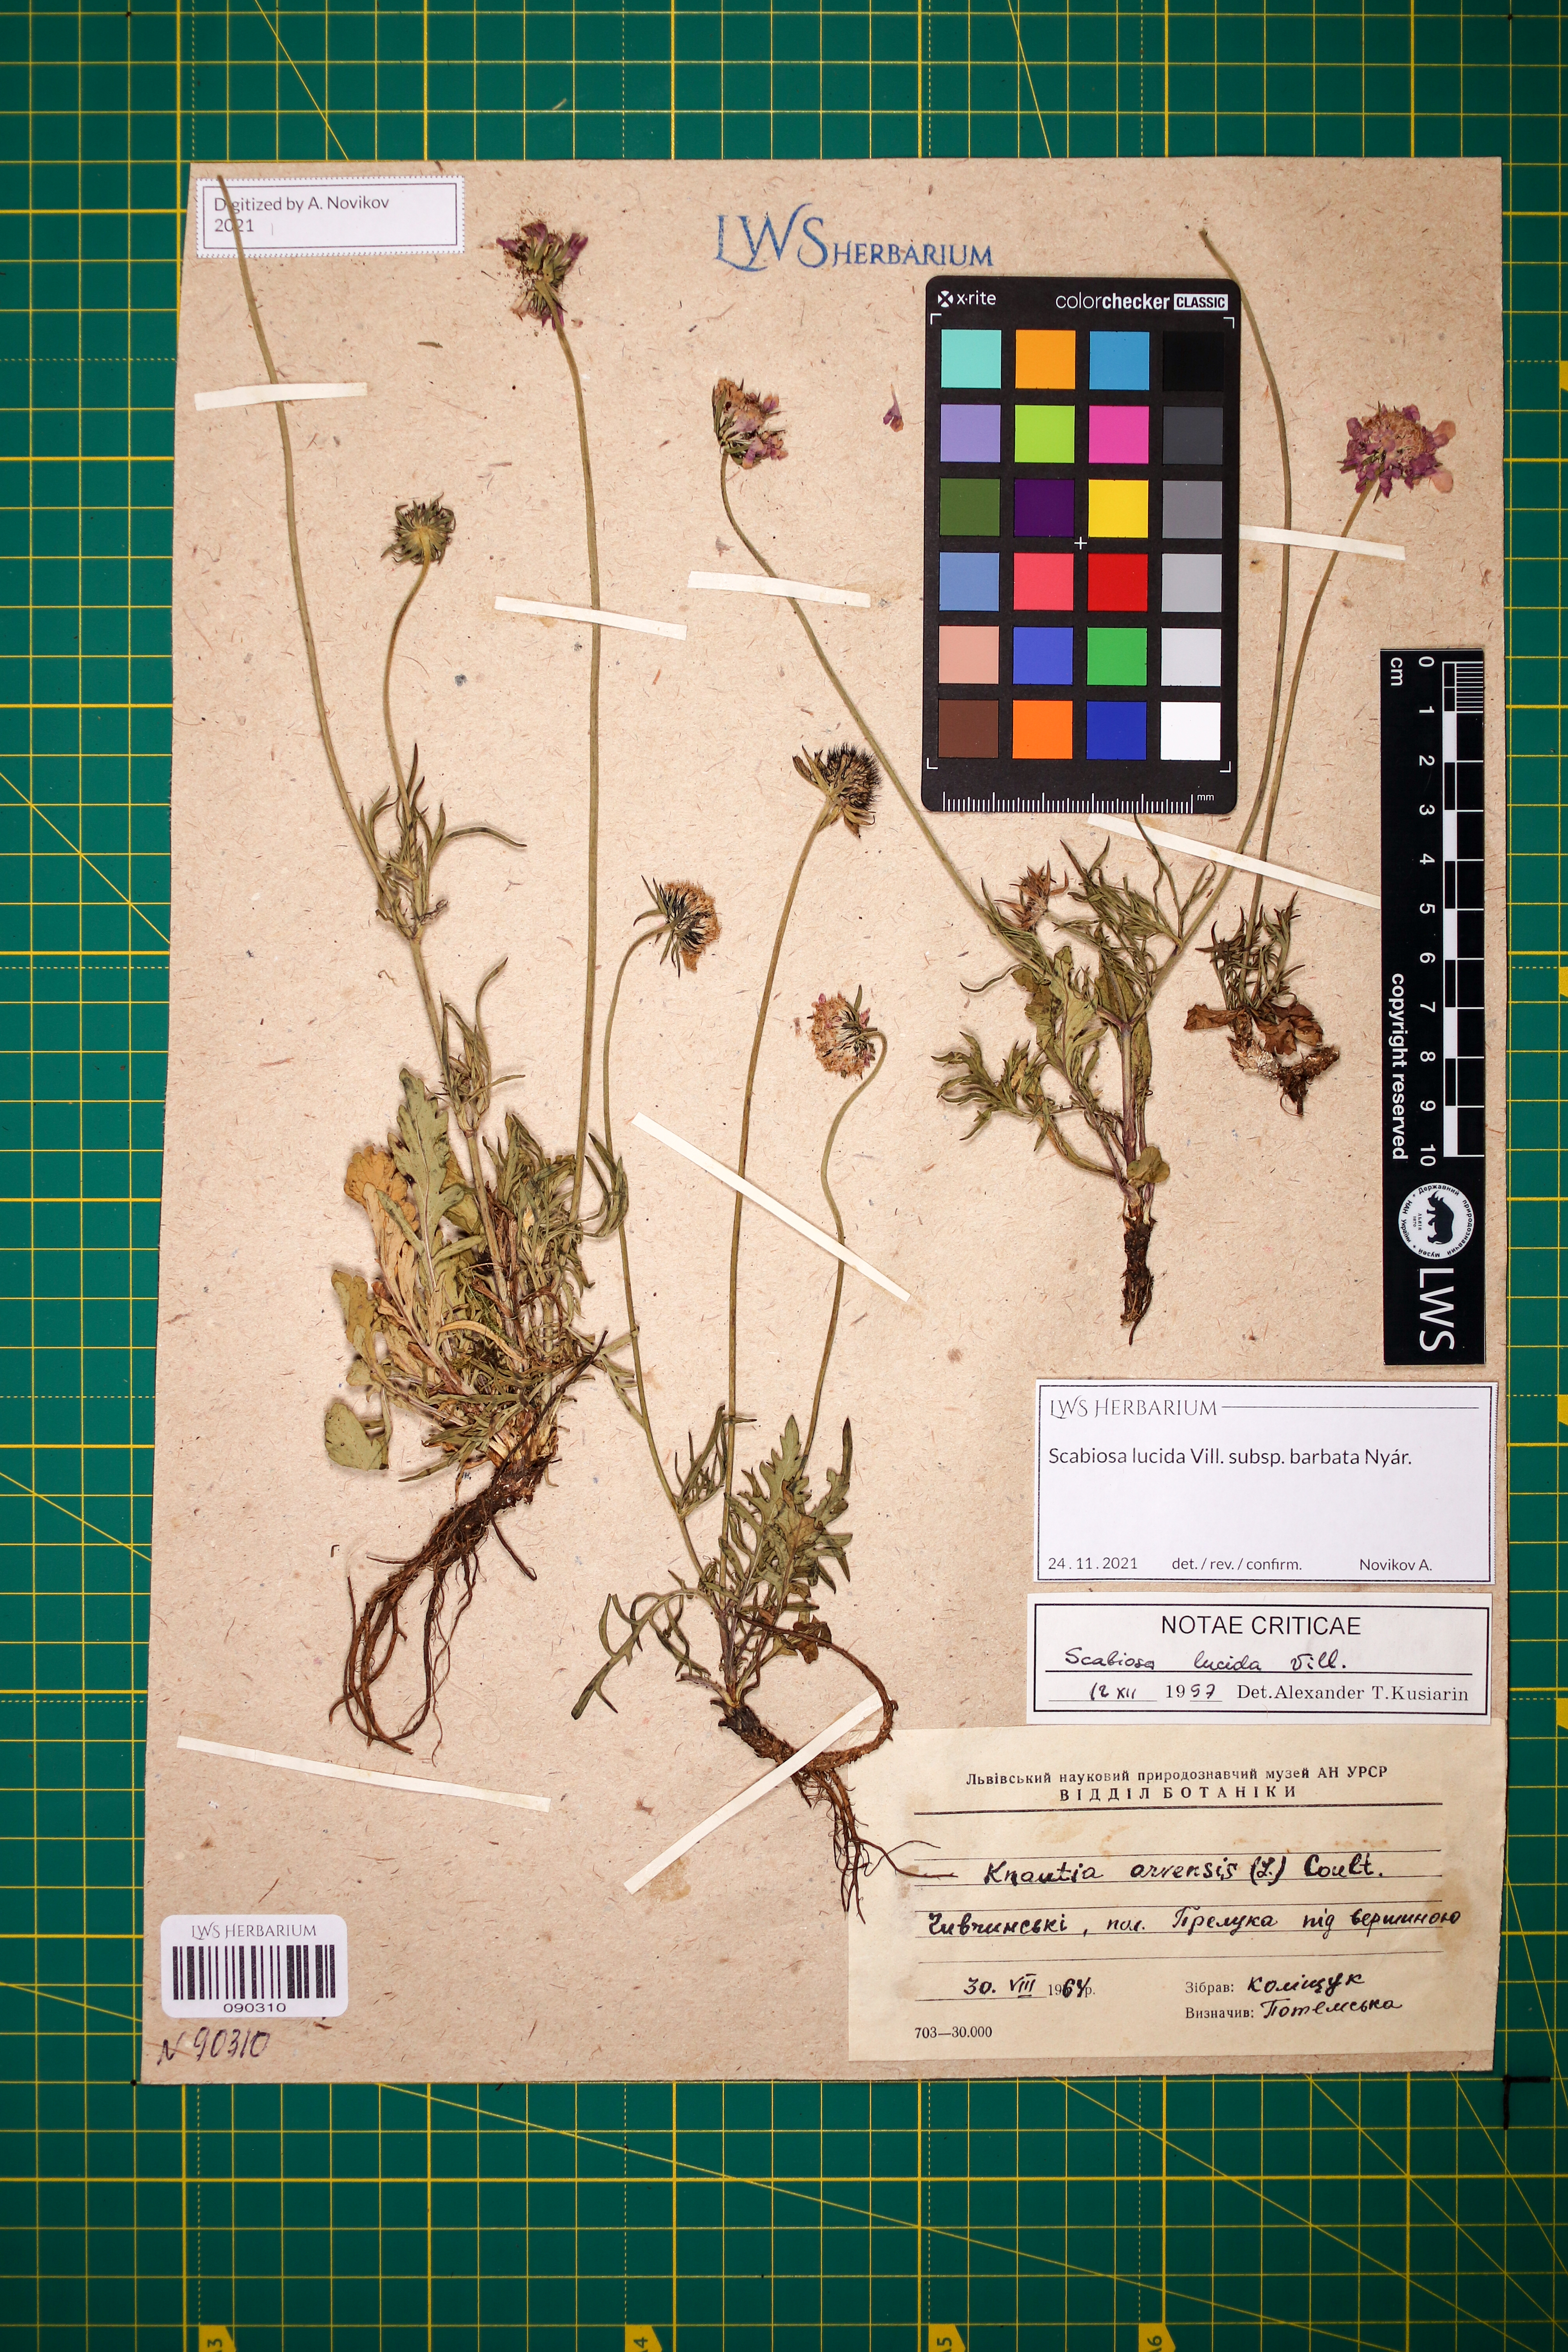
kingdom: Plantae
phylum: Tracheophyta
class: Magnoliopsida
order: Dipsacales
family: Caprifoliaceae
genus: Scabiosa
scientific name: Scabiosa lucida
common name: Shining scabious
